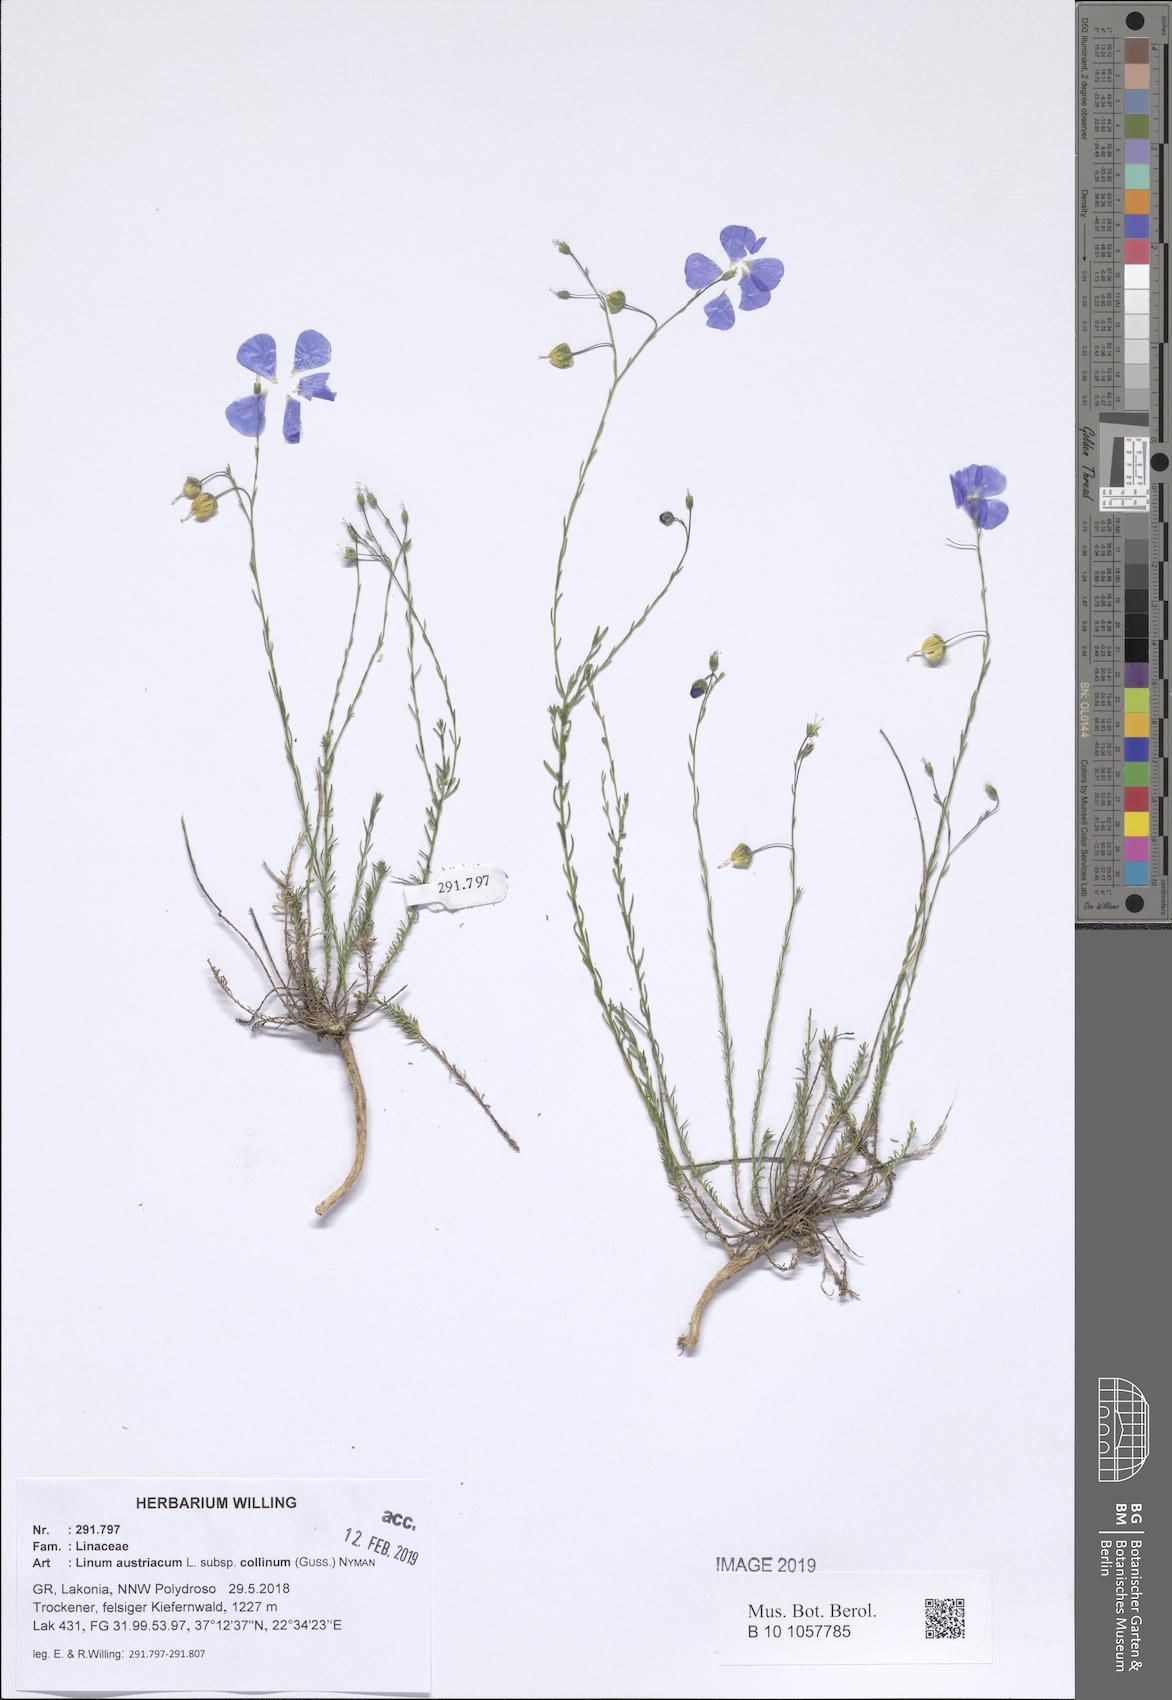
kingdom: Plantae
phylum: Tracheophyta
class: Magnoliopsida
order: Malpighiales
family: Linaceae
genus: Linum
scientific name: Linum alpinum
